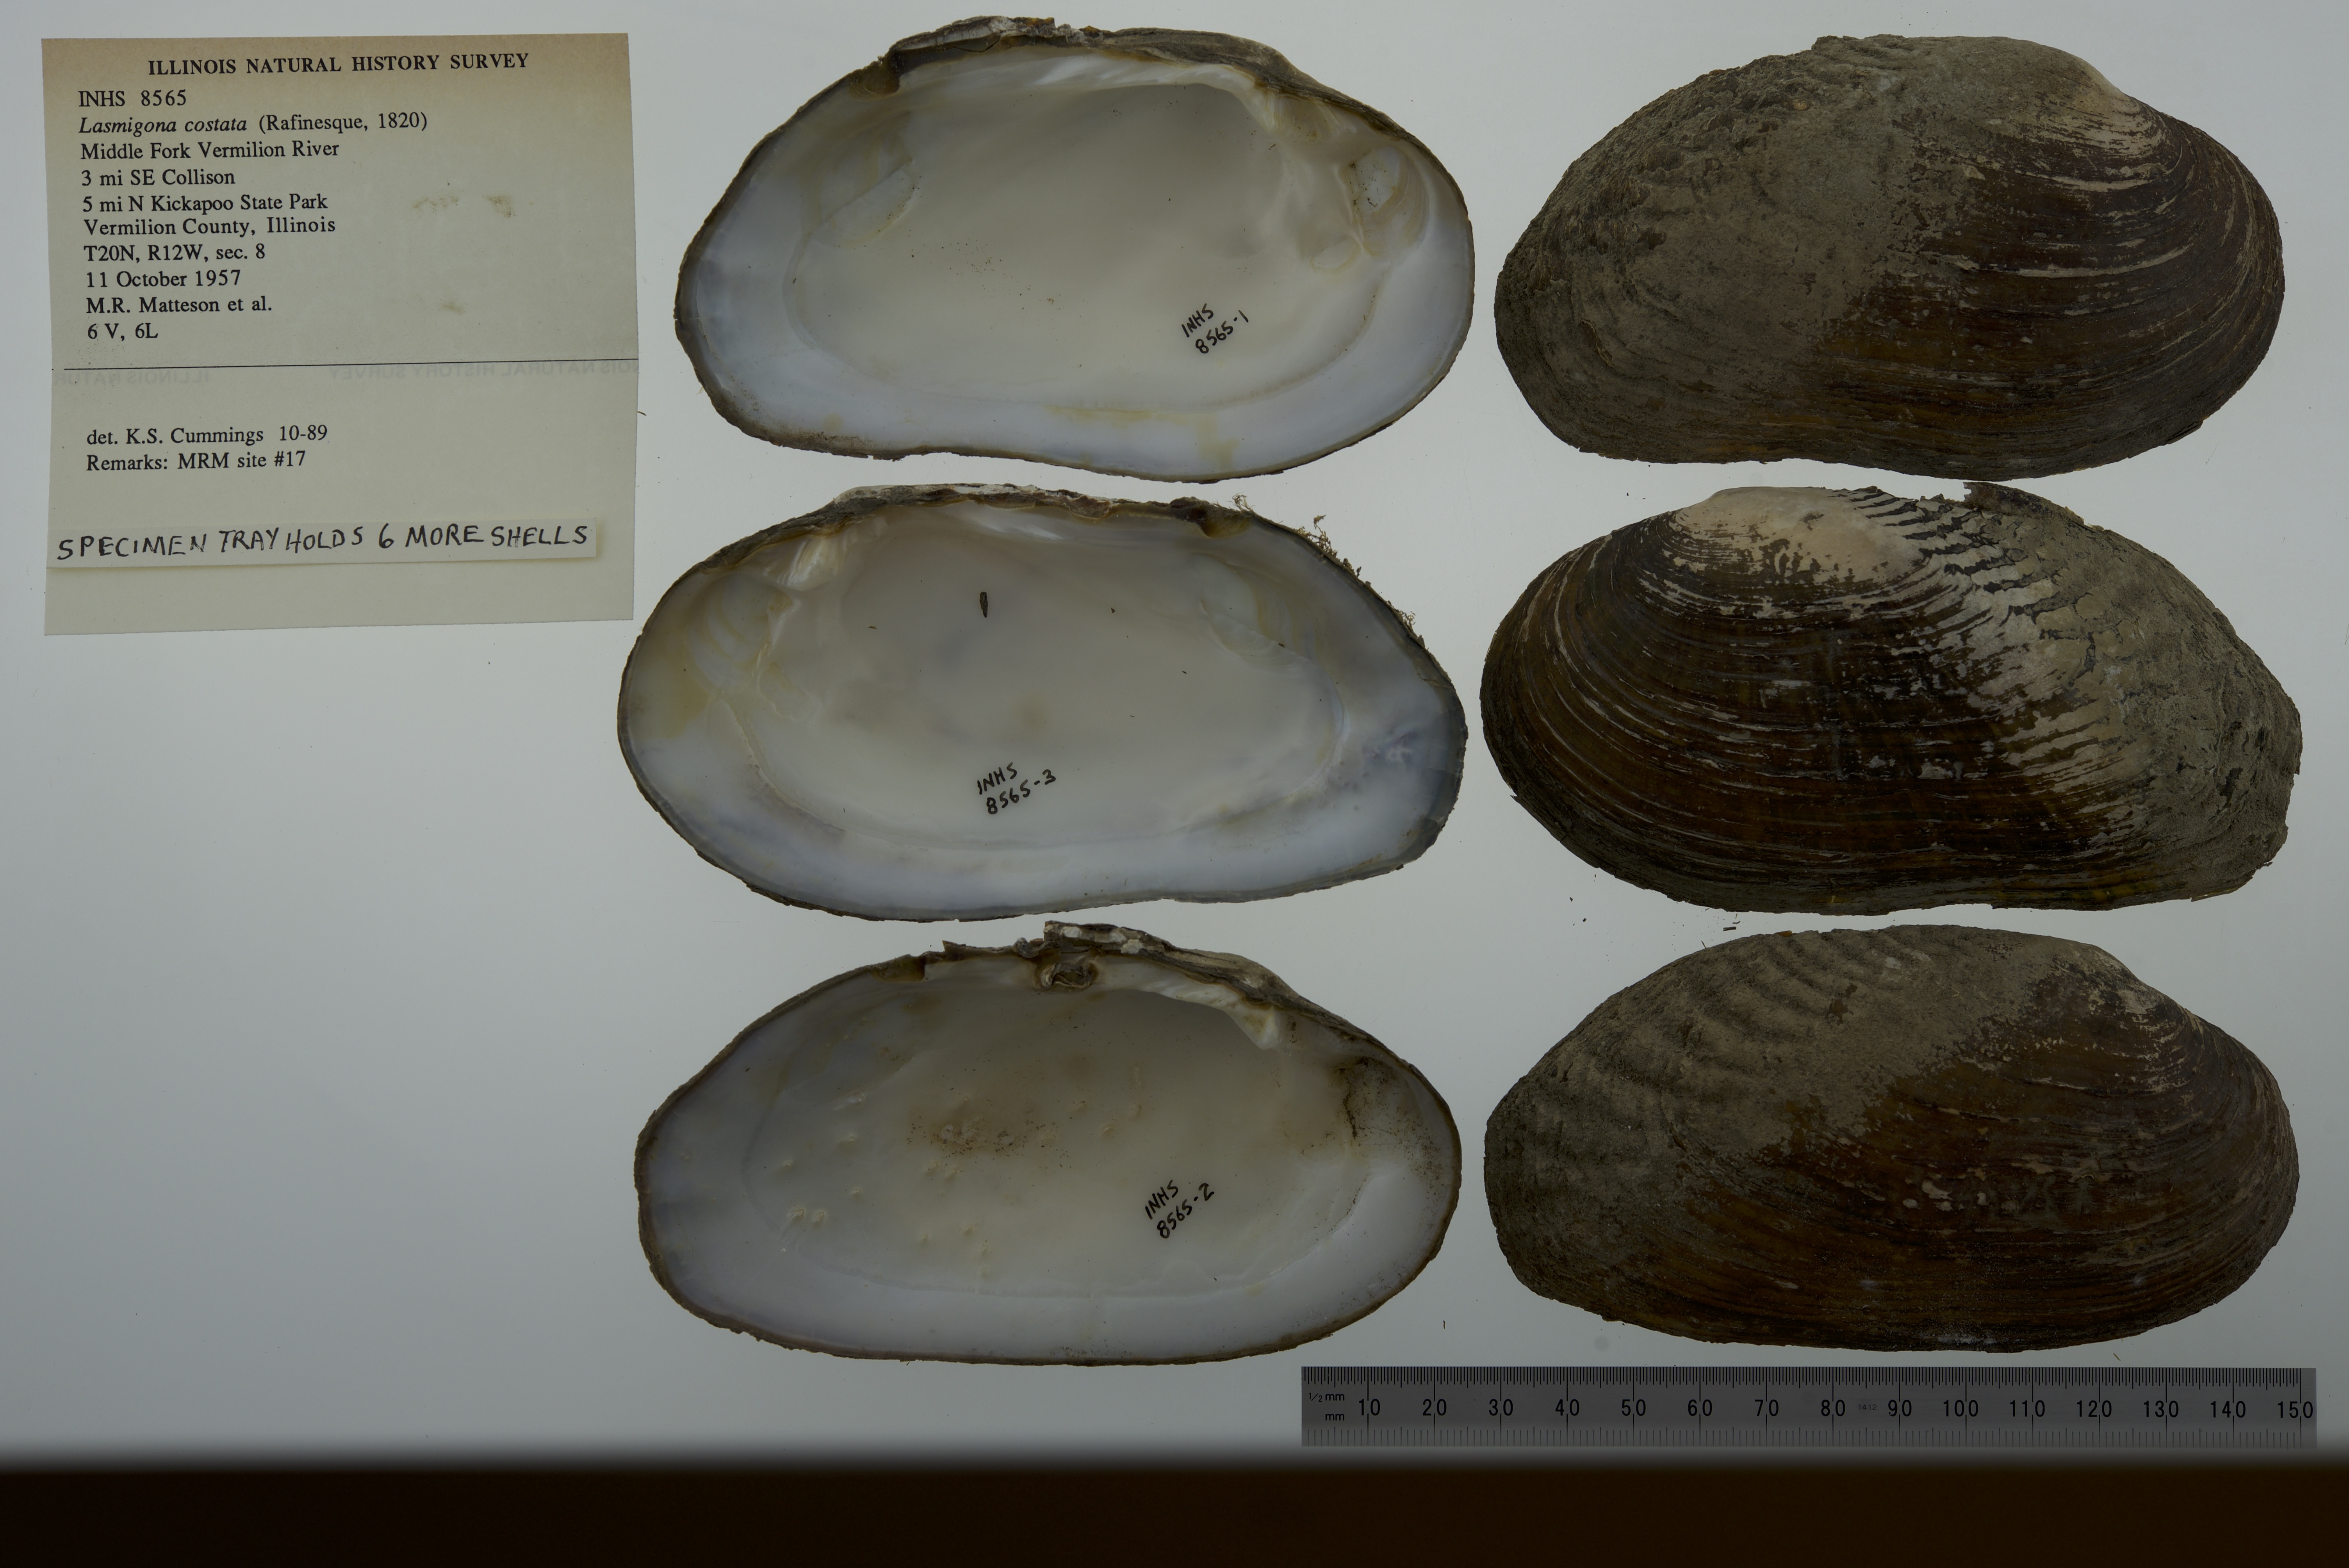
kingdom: Animalia
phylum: Mollusca
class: Bivalvia
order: Unionida
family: Unionidae
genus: Lasmigona
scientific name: Lasmigona costata
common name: Flutedshell
